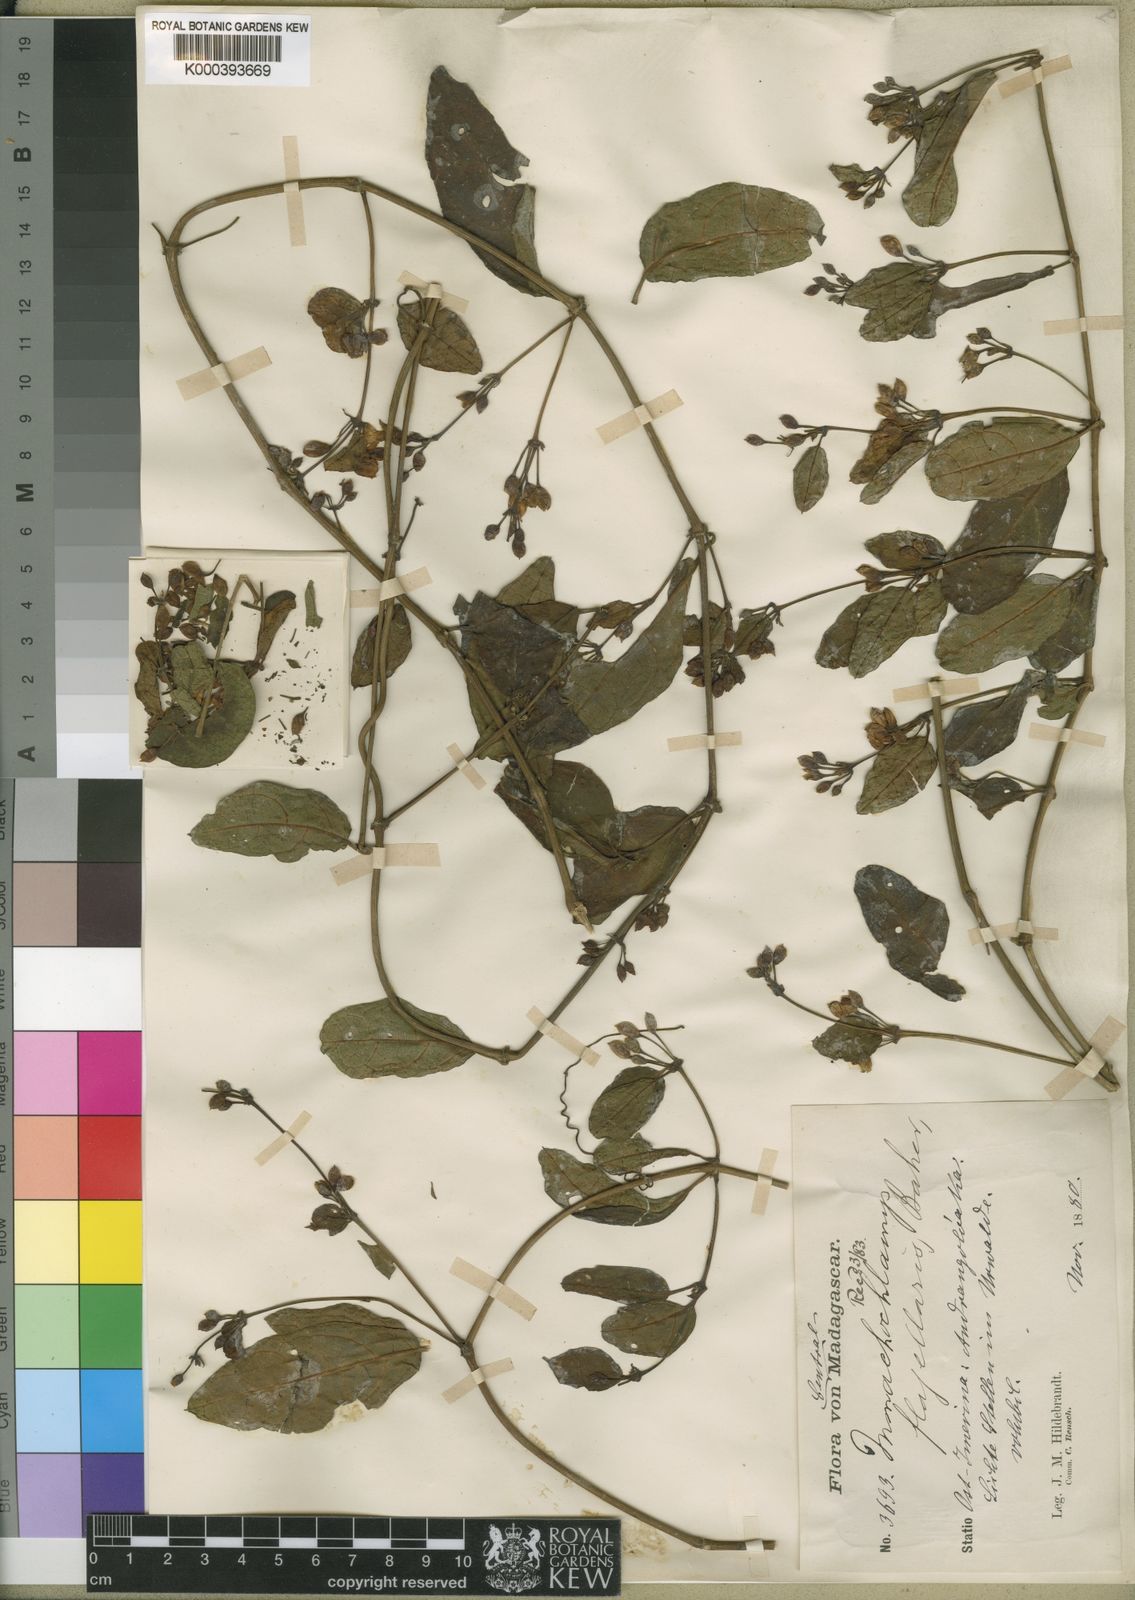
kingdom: Plantae
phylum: Tracheophyta
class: Magnoliopsida
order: Lamiales
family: Acanthaceae
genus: Mendoncia
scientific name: Mendoncia flagellaris
